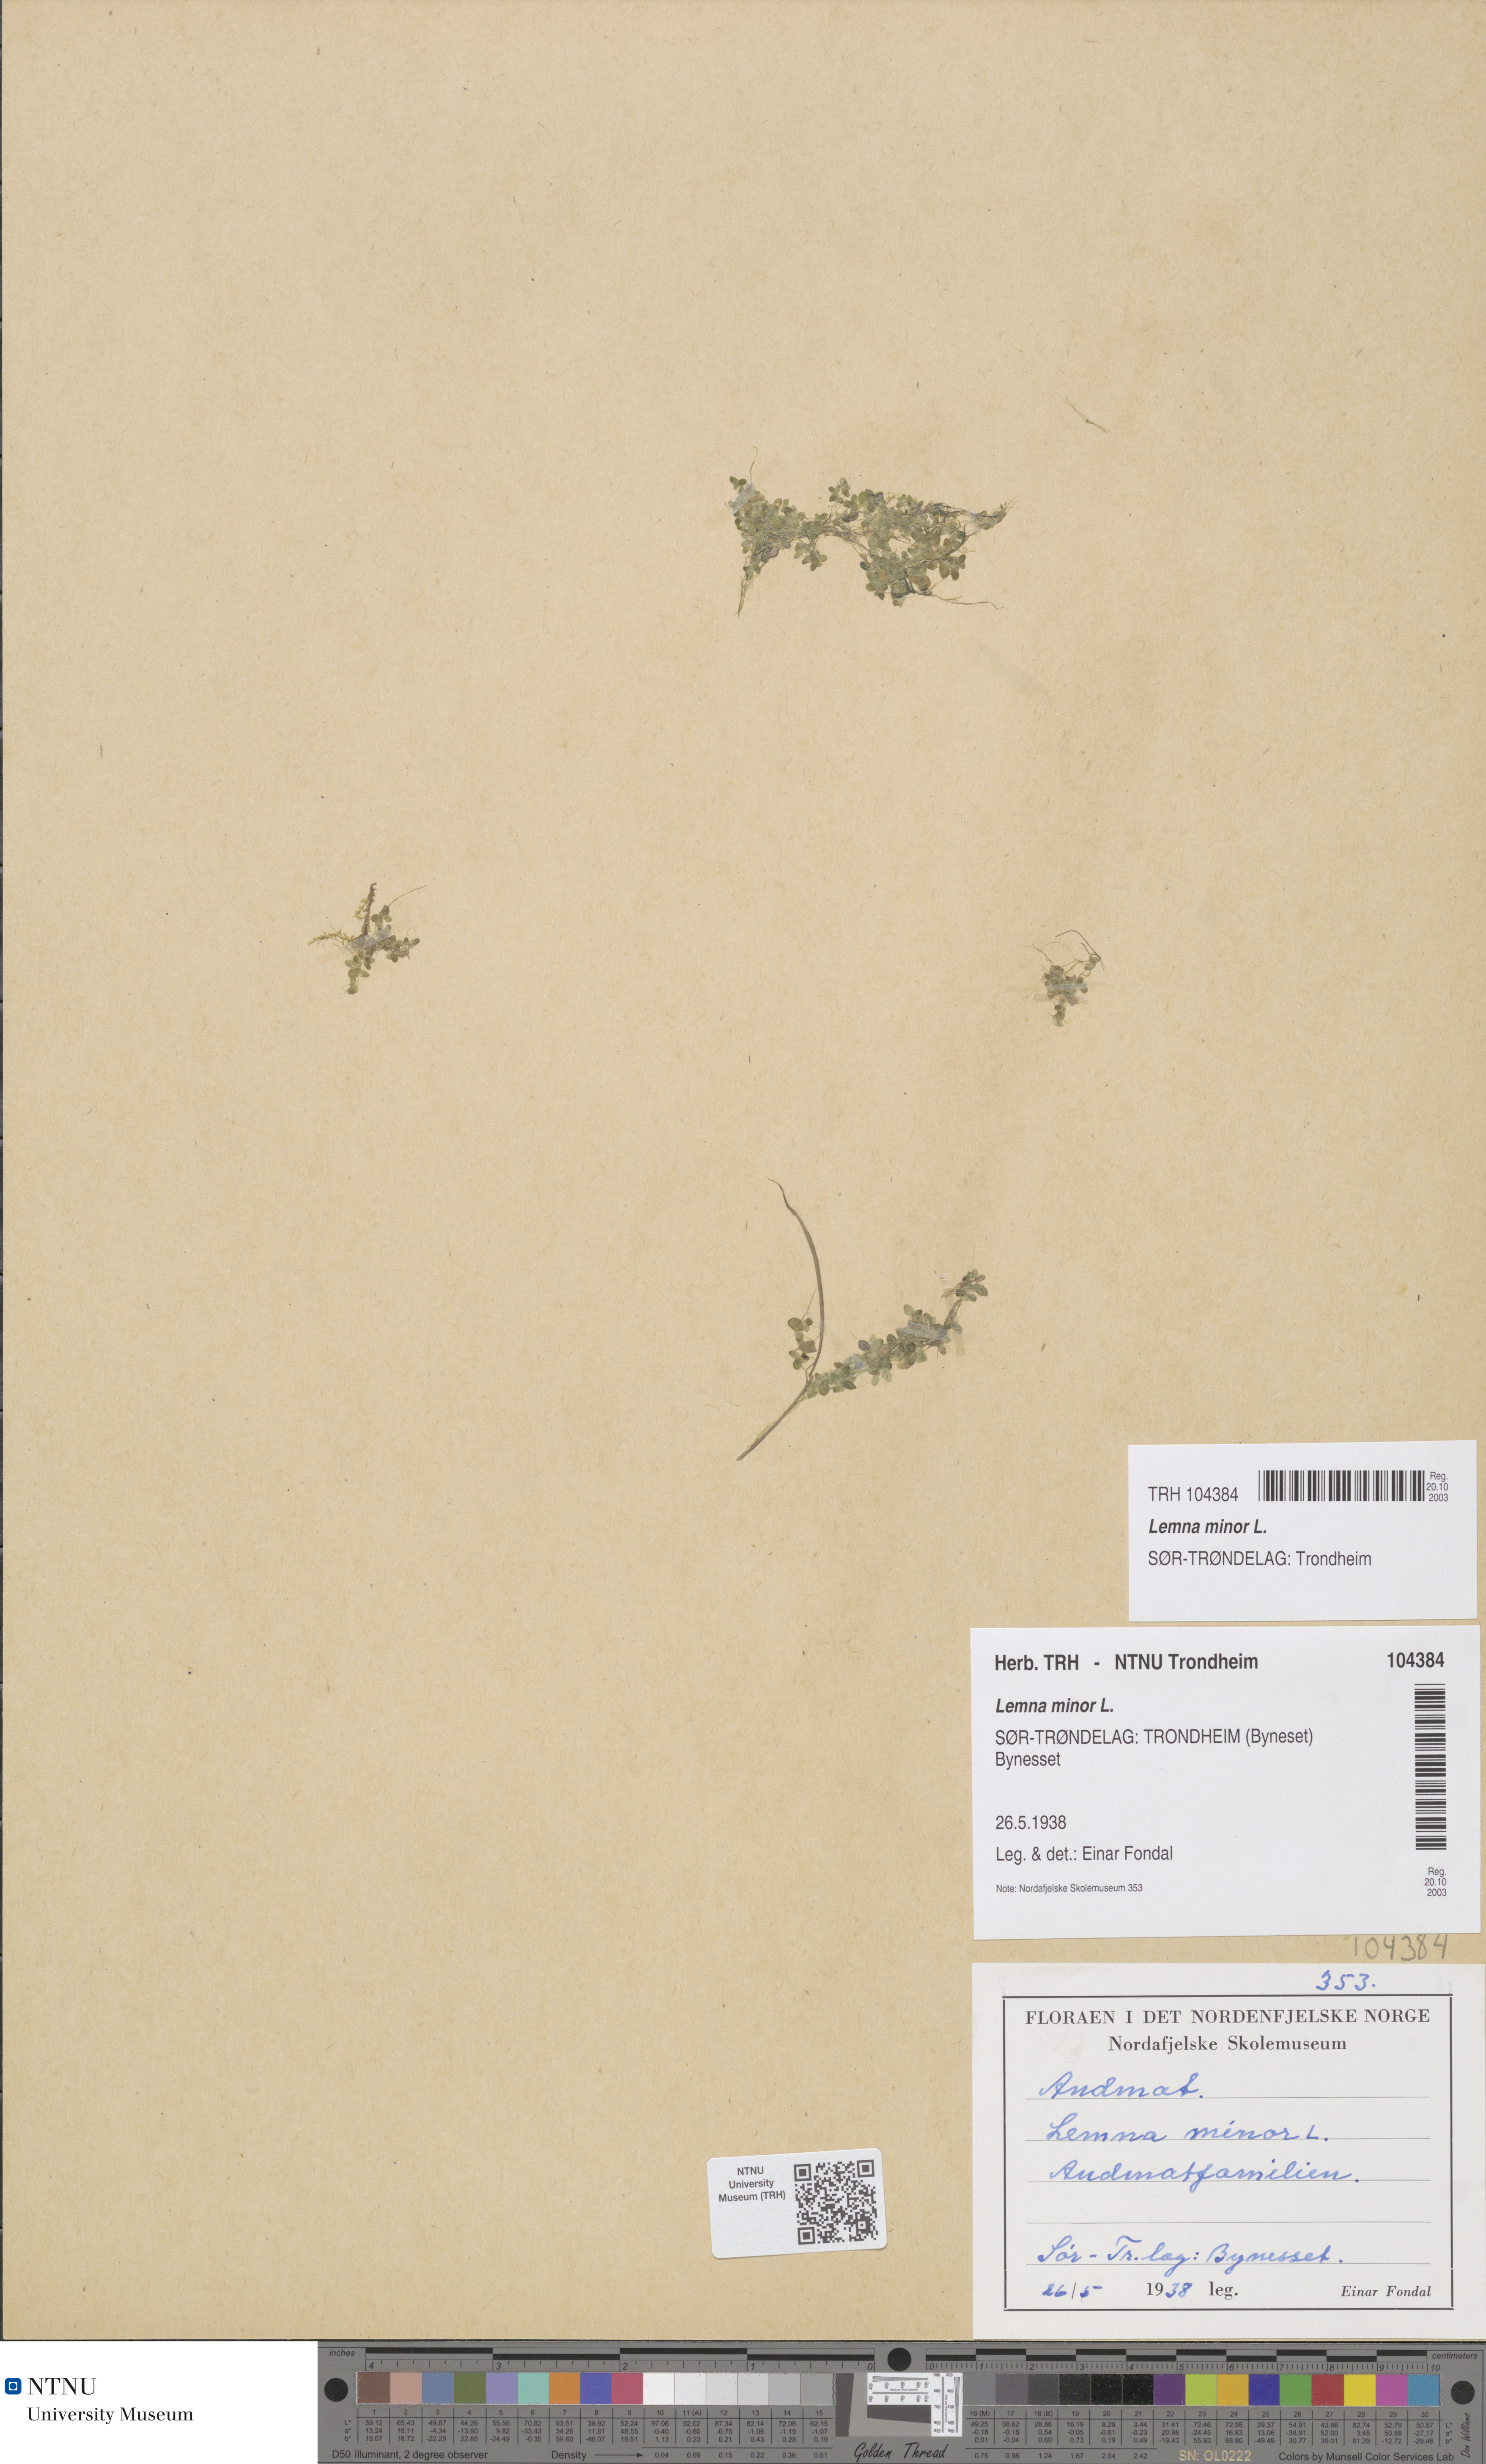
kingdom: Plantae
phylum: Tracheophyta
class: Liliopsida
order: Alismatales
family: Araceae
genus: Lemna
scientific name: Lemna minor
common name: Common duckweed
